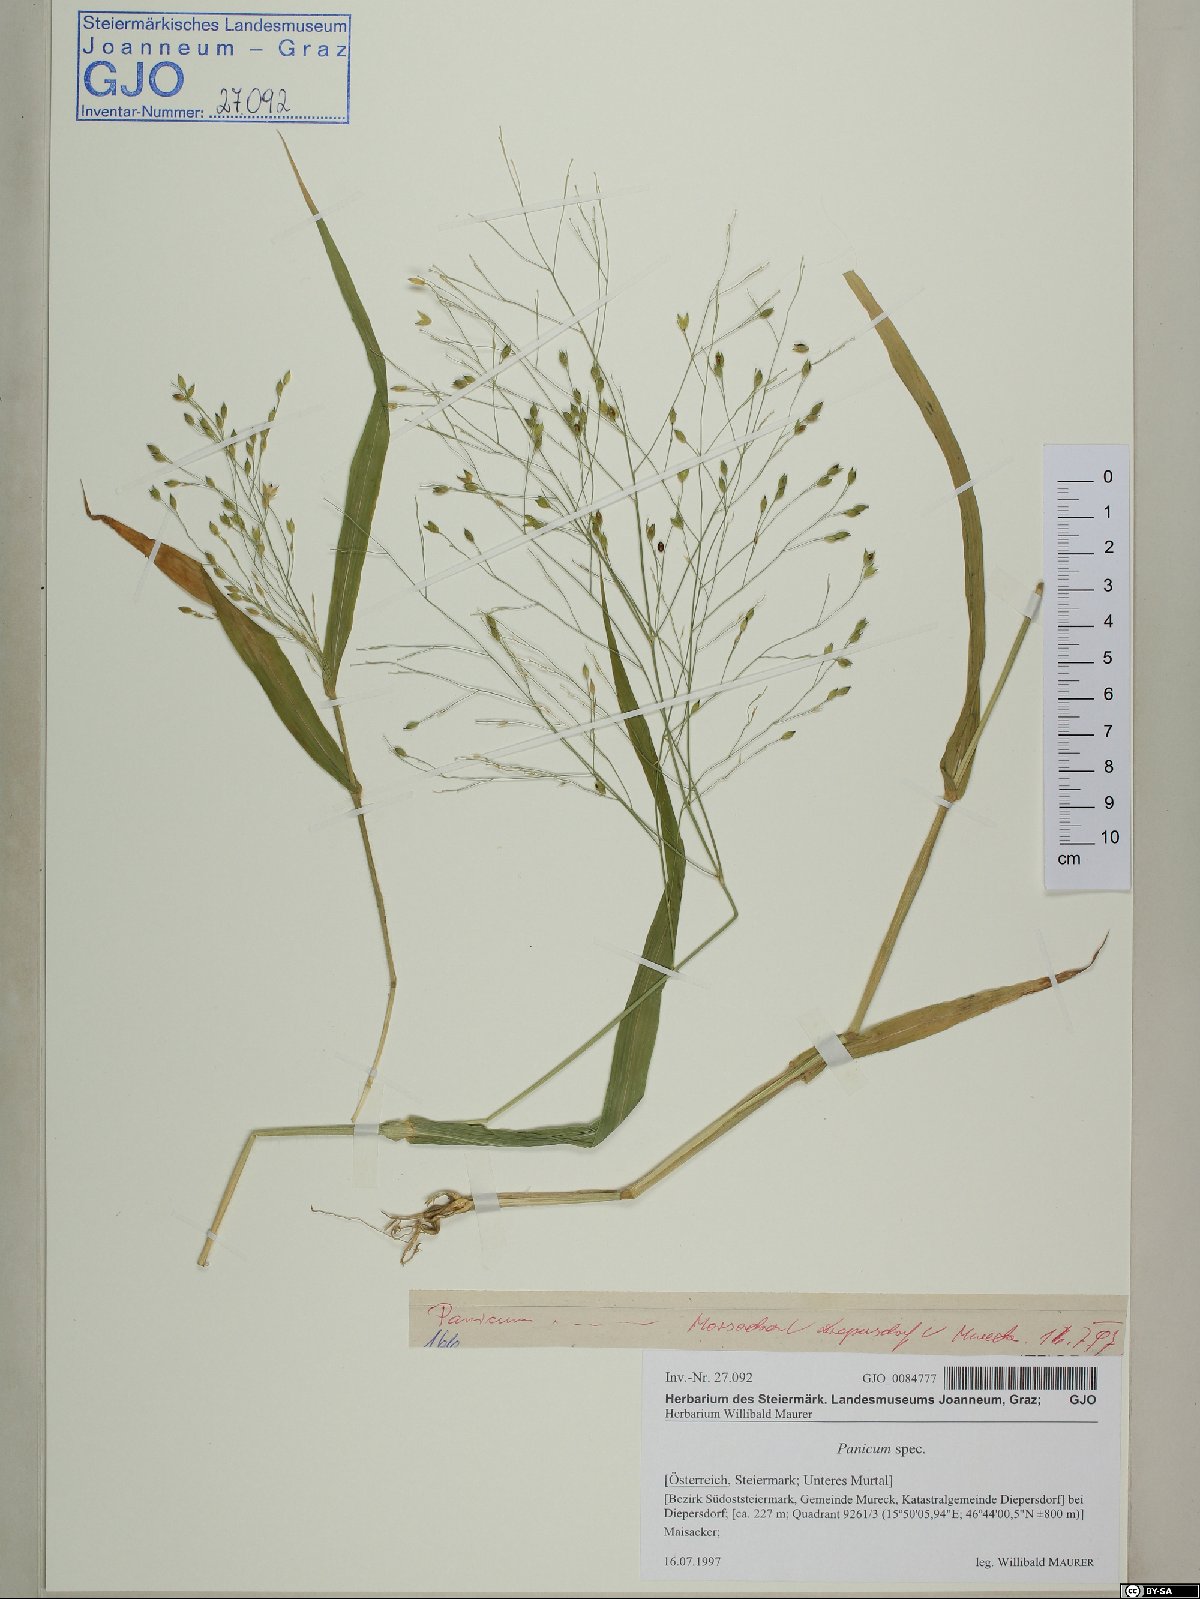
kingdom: Plantae
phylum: Tracheophyta
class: Liliopsida
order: Poales
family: Poaceae
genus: Panicum
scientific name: Panicum
